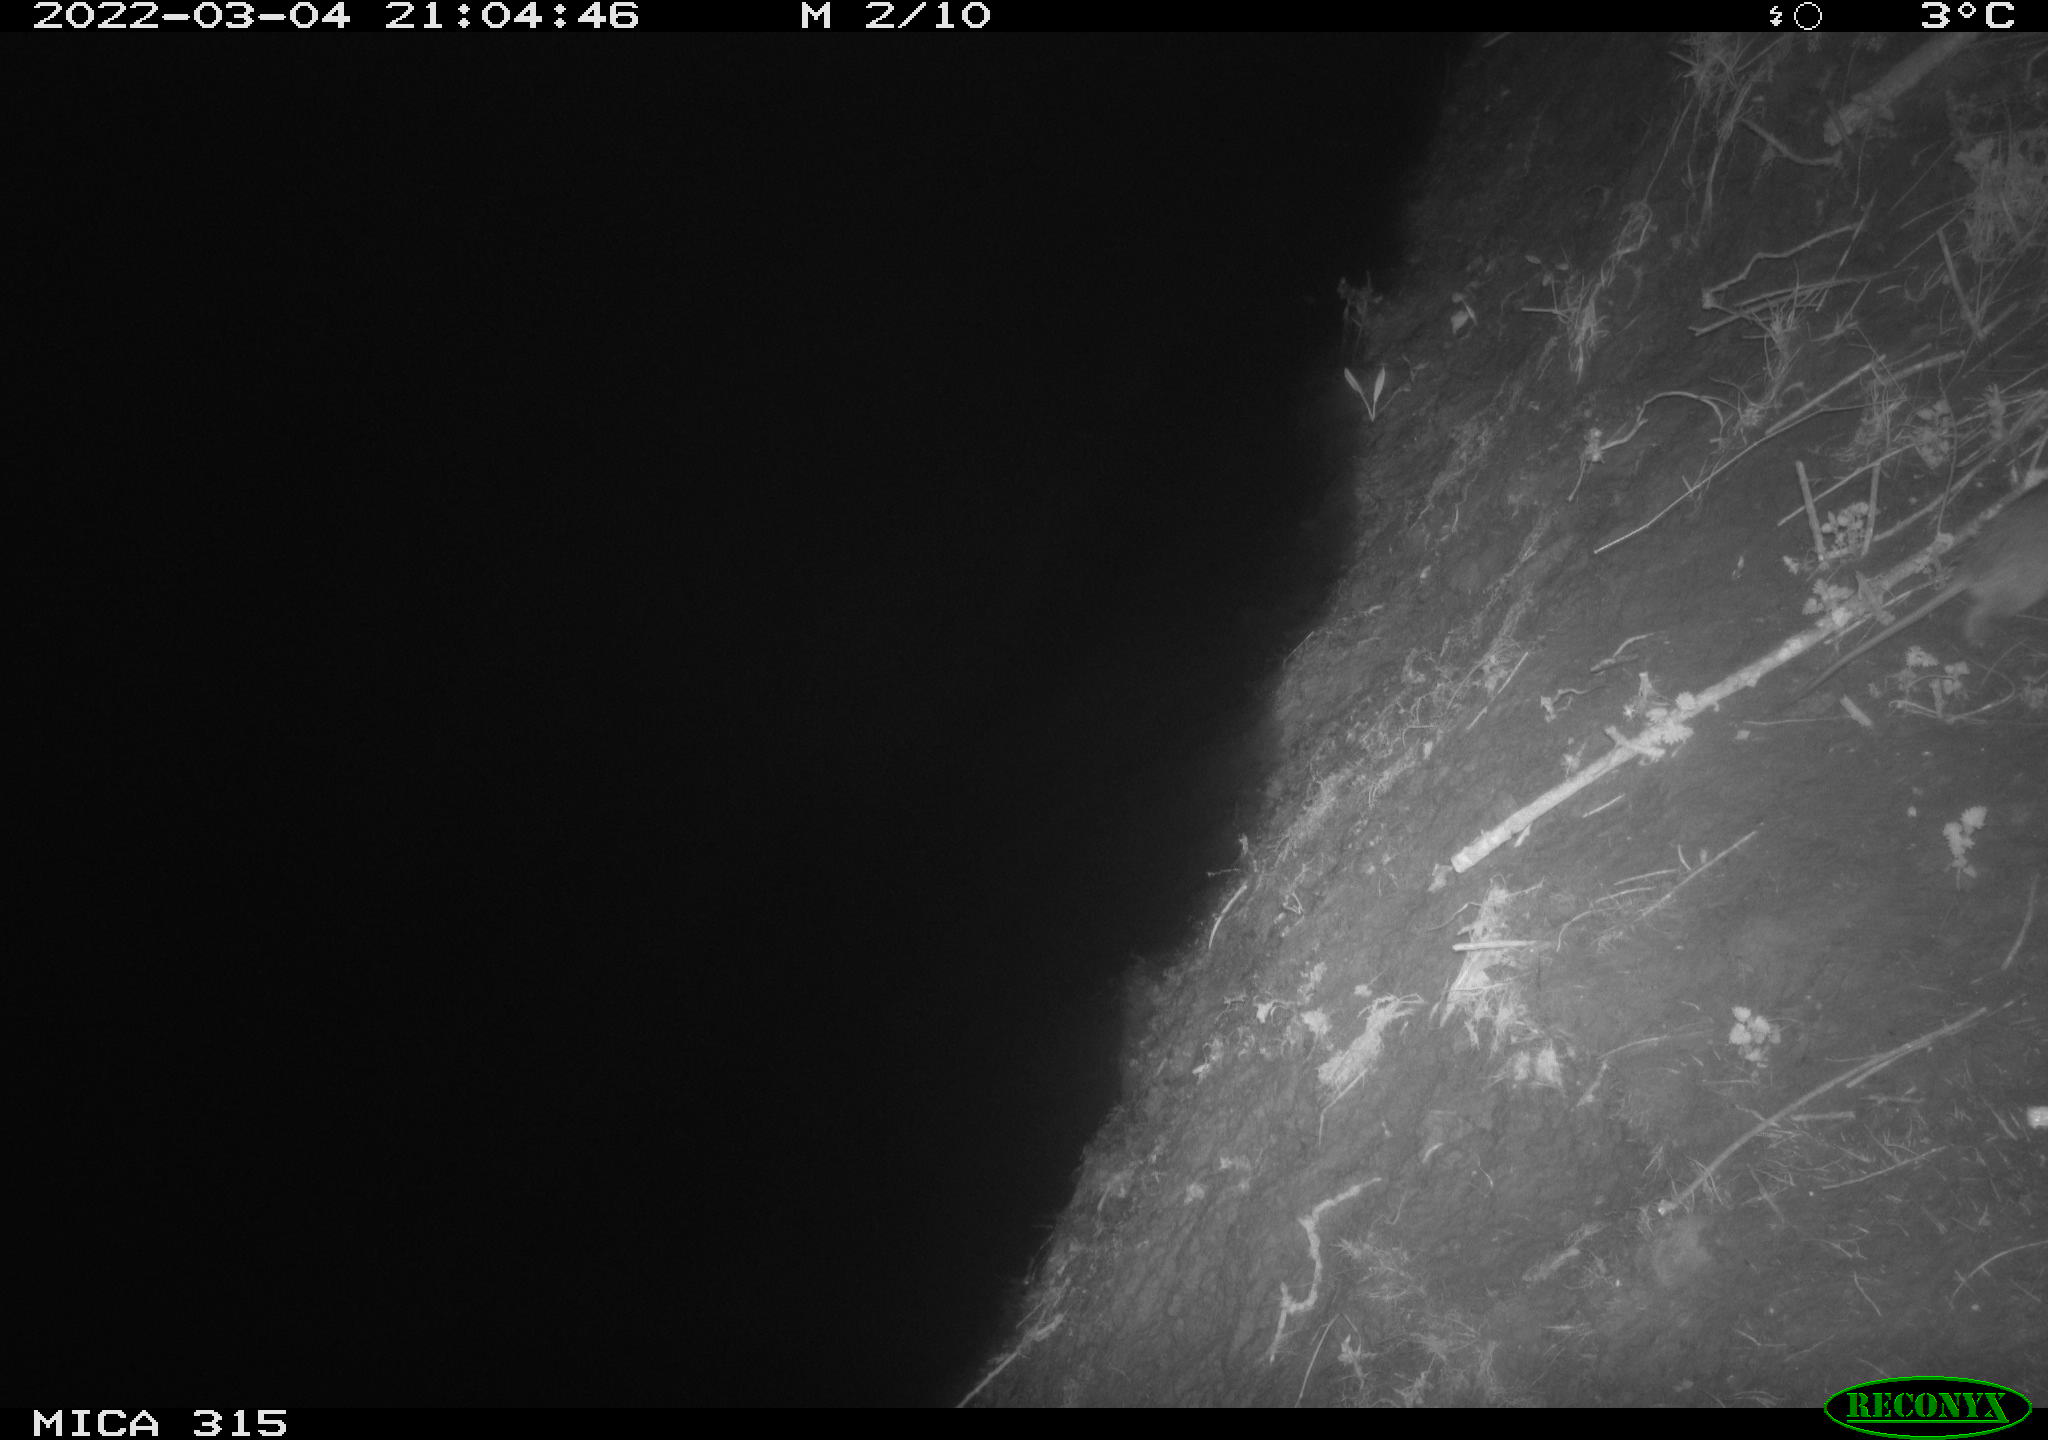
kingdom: Animalia
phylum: Chordata
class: Mammalia
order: Rodentia
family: Muridae
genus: Rattus
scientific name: Rattus norvegicus
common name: Brown rat
